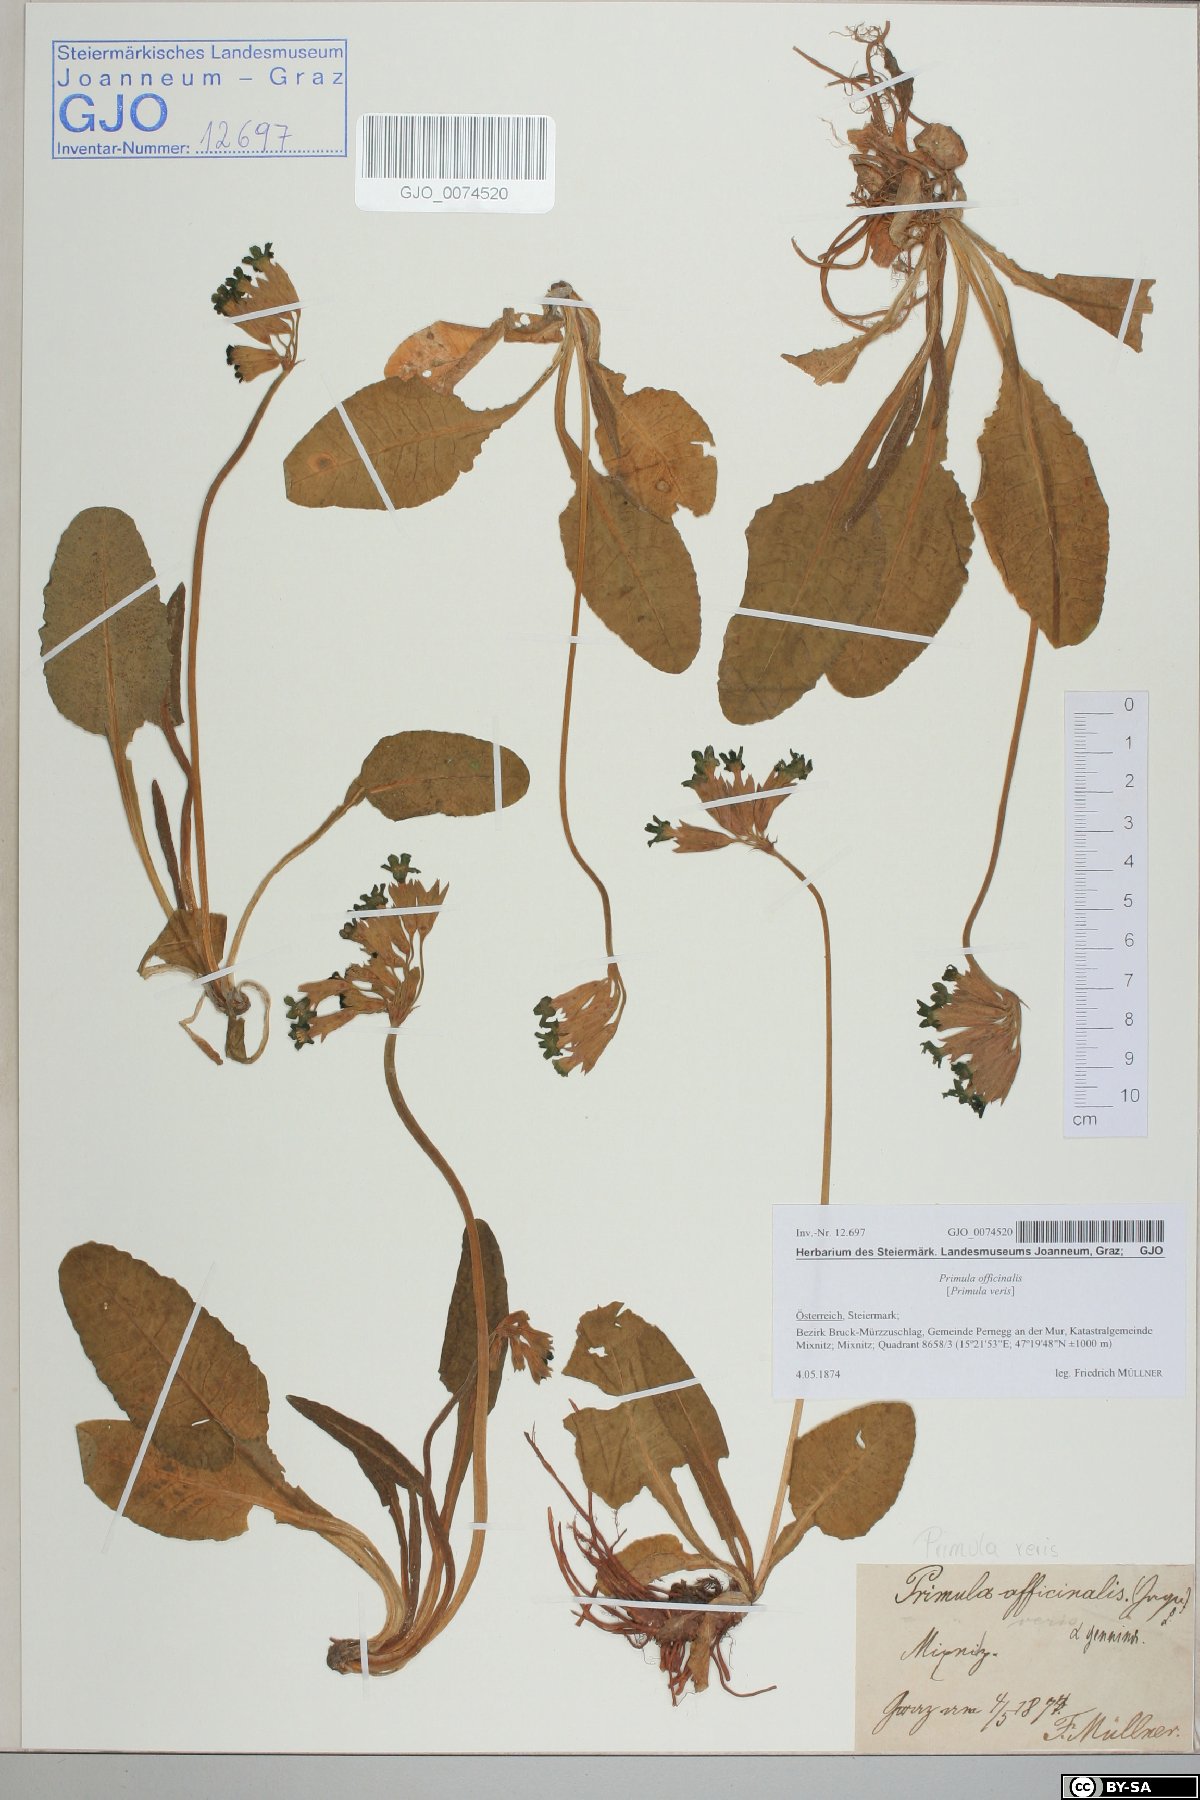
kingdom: Plantae
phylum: Tracheophyta
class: Magnoliopsida
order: Ericales
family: Primulaceae
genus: Primula
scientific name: Primula veris
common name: Cowslip
